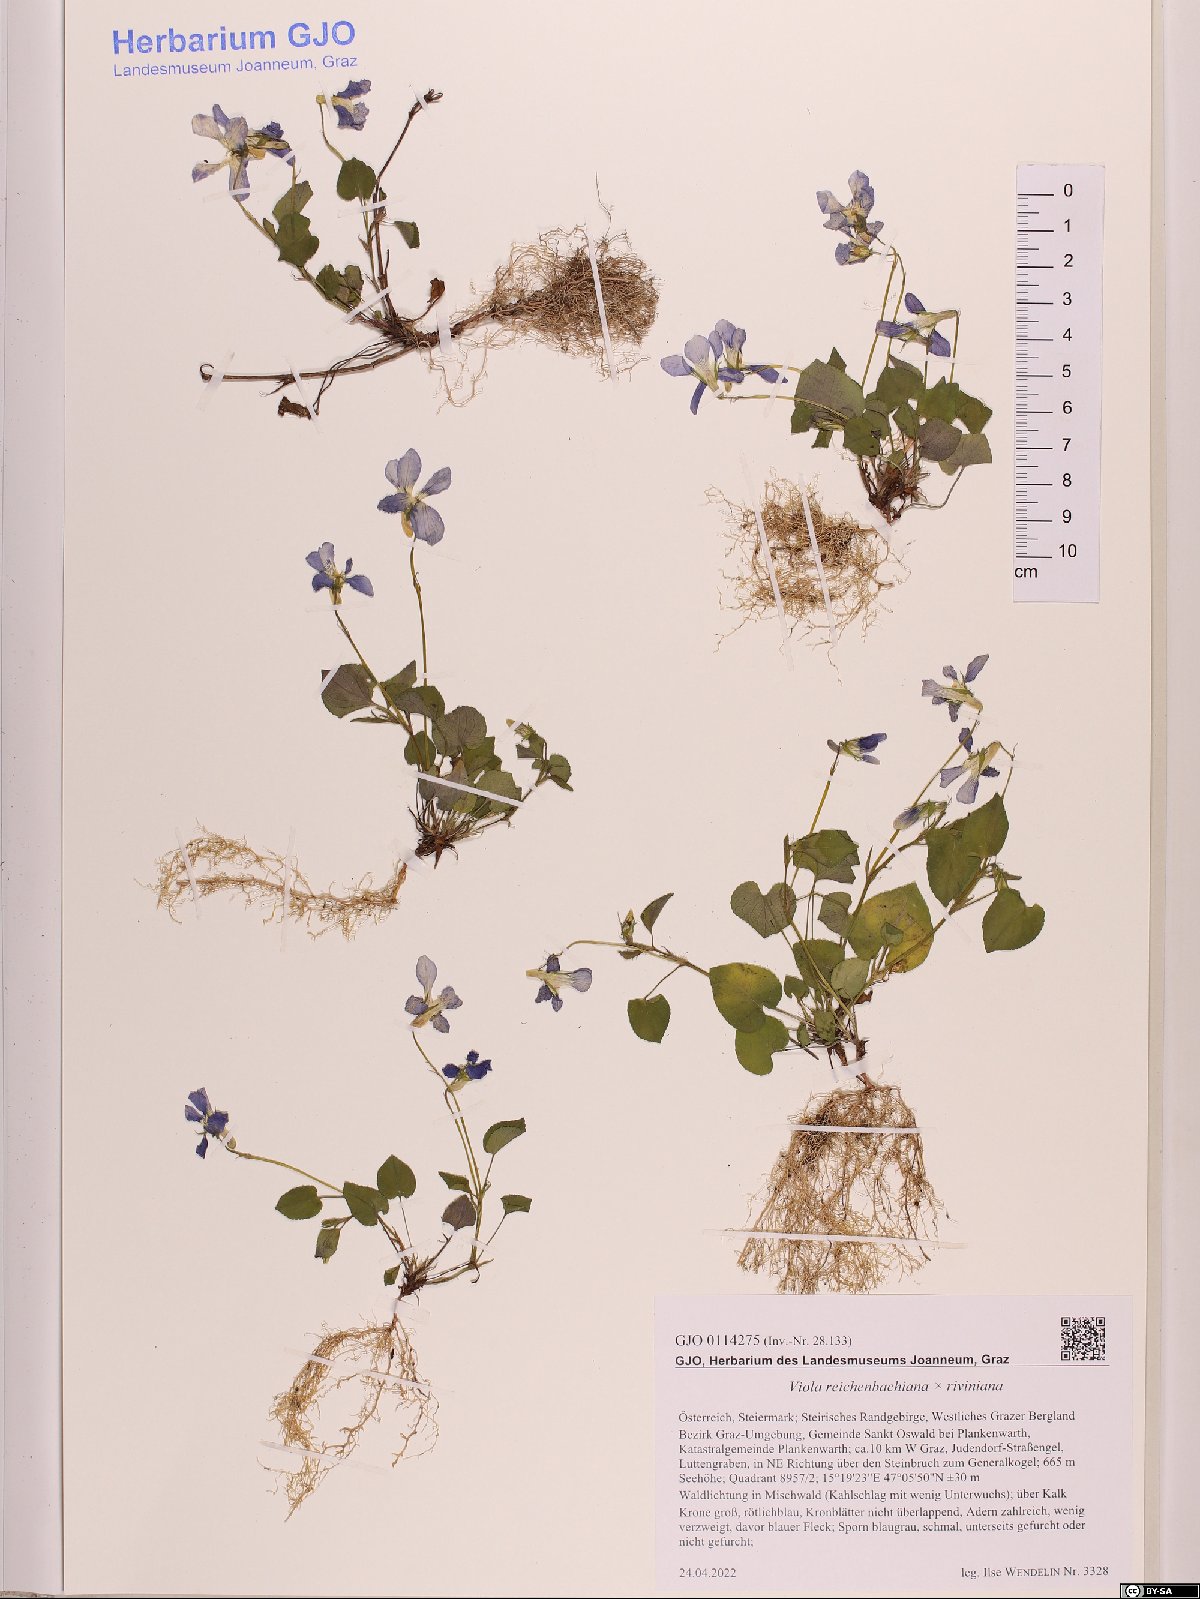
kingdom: Plantae
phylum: Tracheophyta
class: Magnoliopsida
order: Malpighiales
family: Violaceae
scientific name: Violaceae
